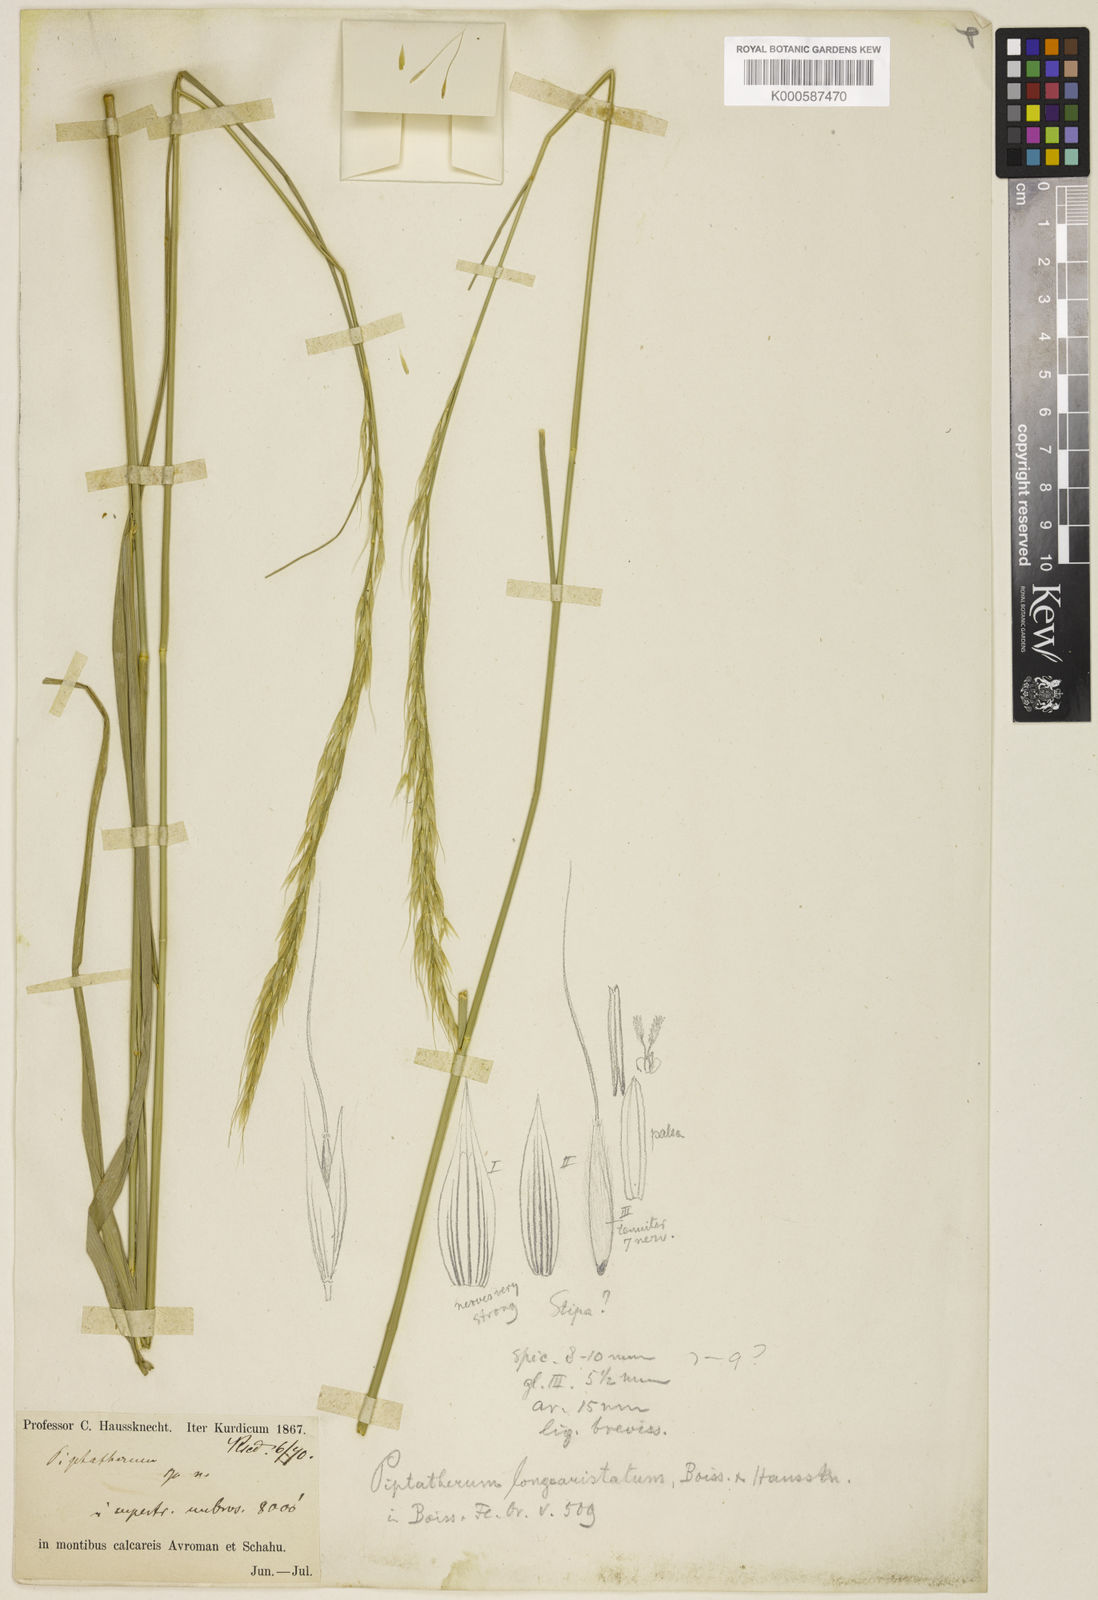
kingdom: Plantae
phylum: Tracheophyta
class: Liliopsida
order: Poales
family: Poaceae
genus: Achnatherum
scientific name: Achnatherum turcomanicum
